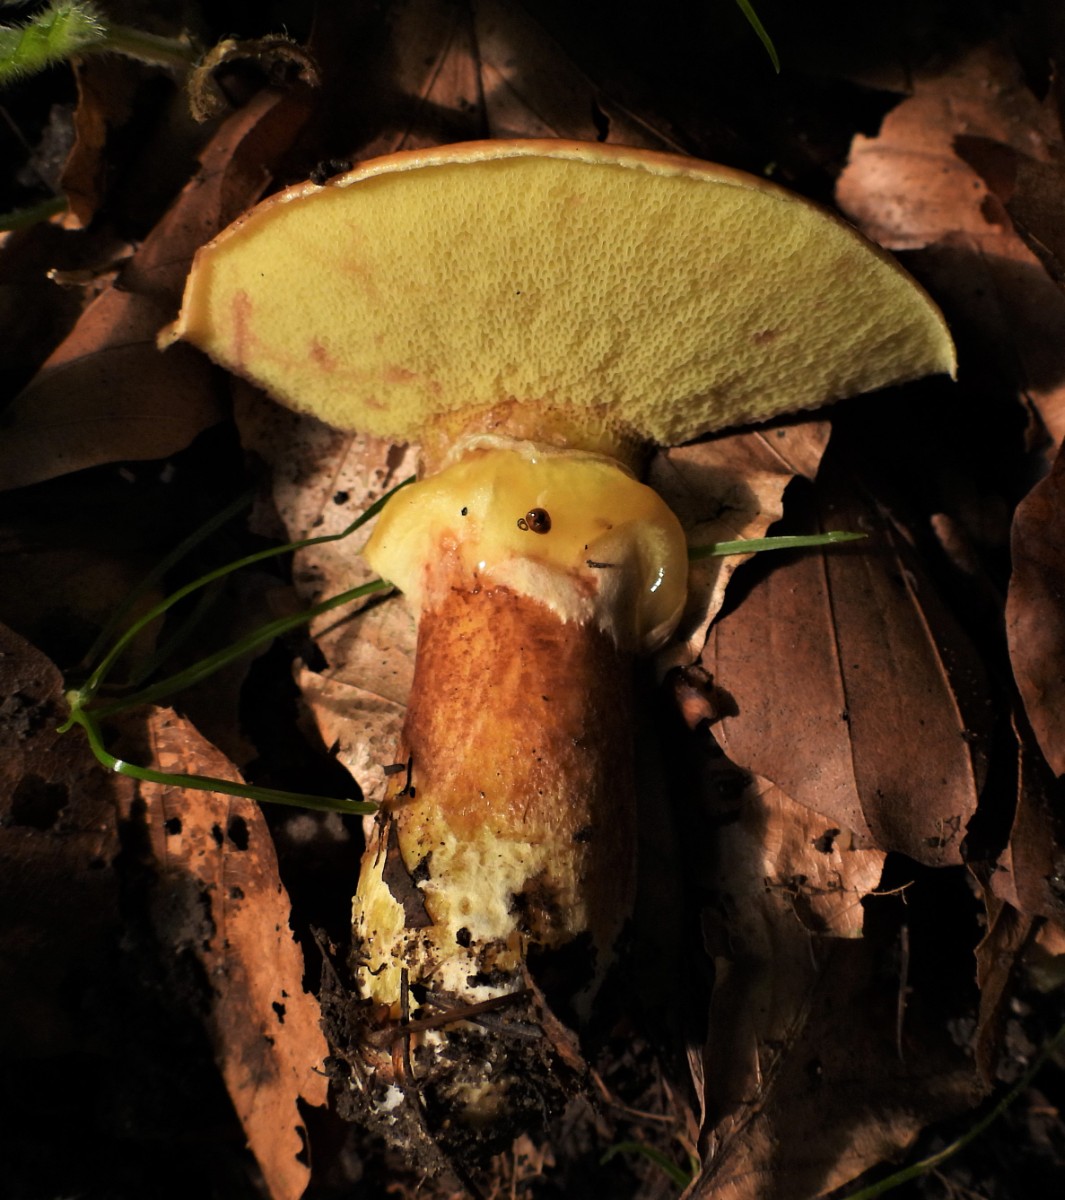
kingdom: Fungi
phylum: Basidiomycota
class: Agaricomycetes
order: Boletales
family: Suillaceae
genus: Suillus
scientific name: Suillus grevillei
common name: lærke-slimrørhat
